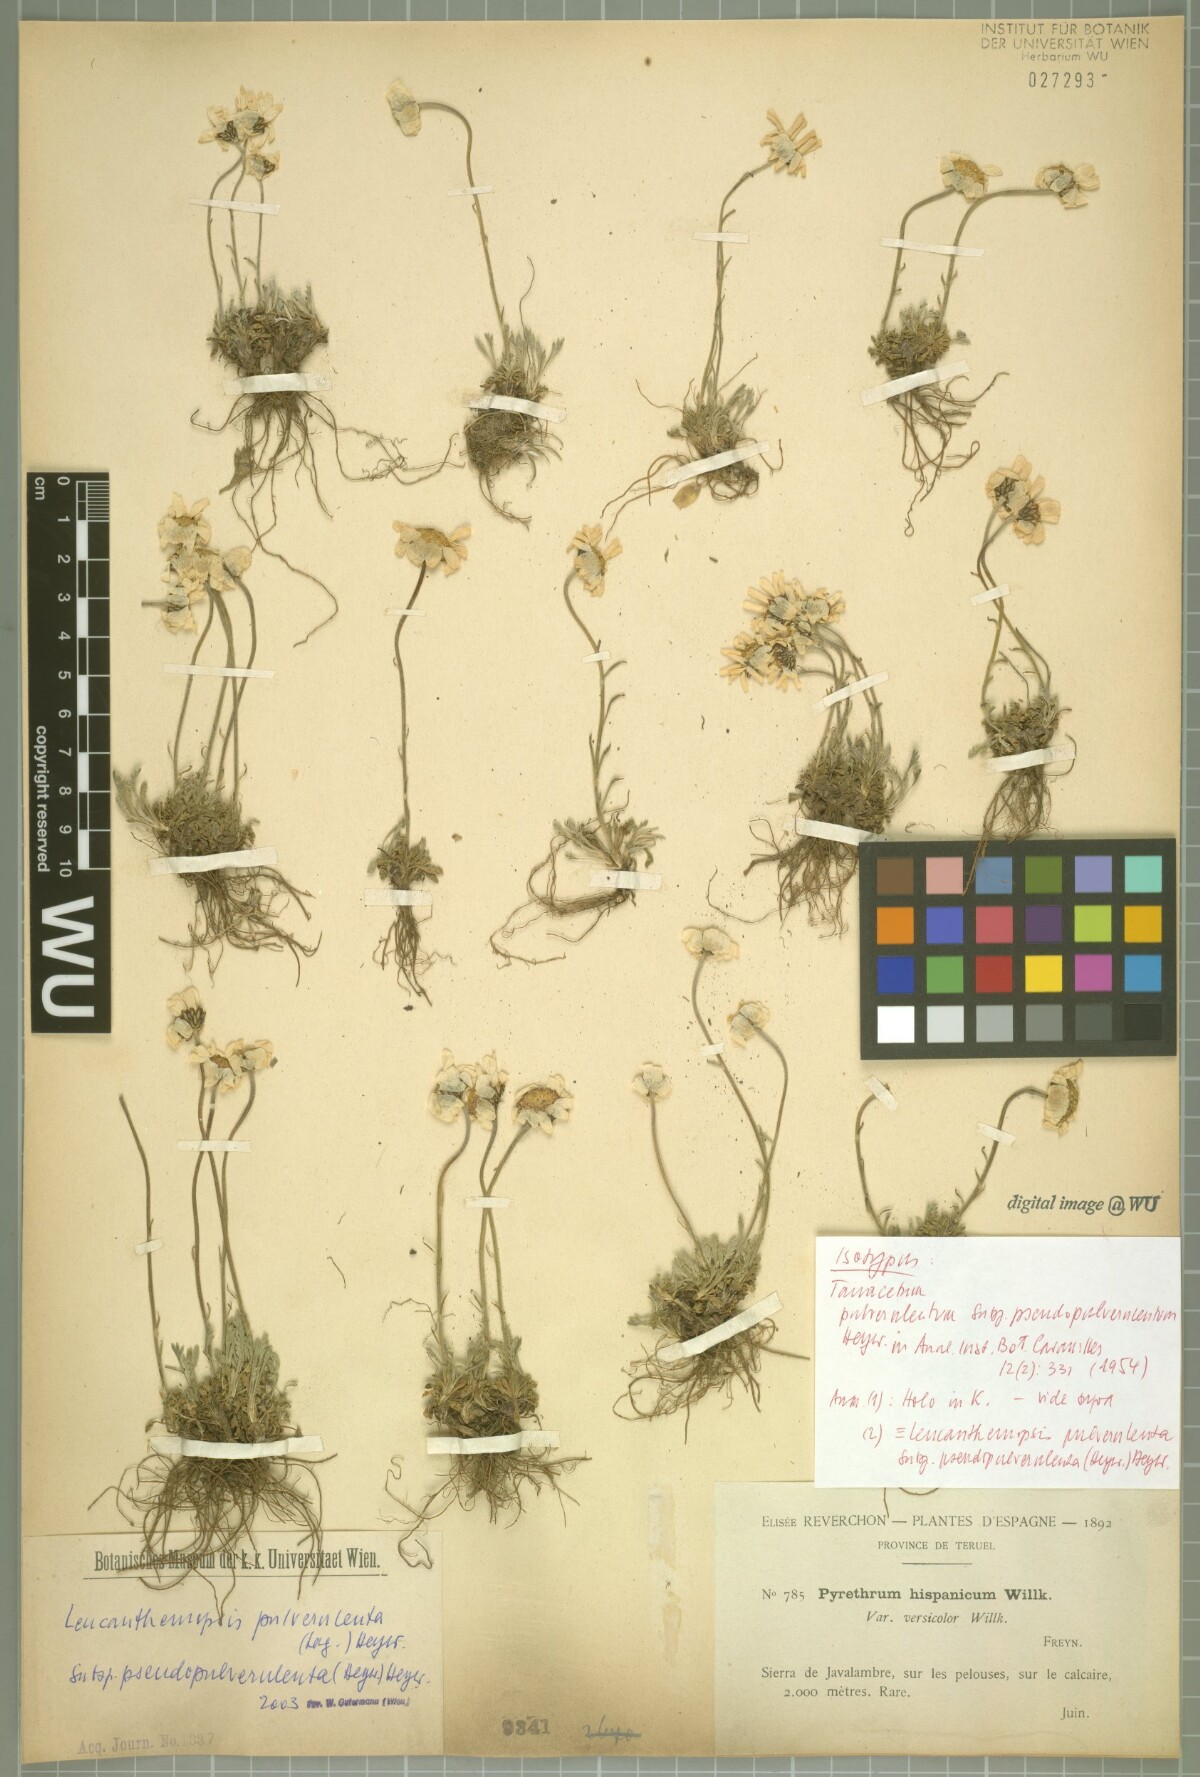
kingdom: Plantae
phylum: Tracheophyta
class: Magnoliopsida
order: Asterales
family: Asteraceae
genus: Leucanthemopsis
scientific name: Leucanthemopsis heywoodii
